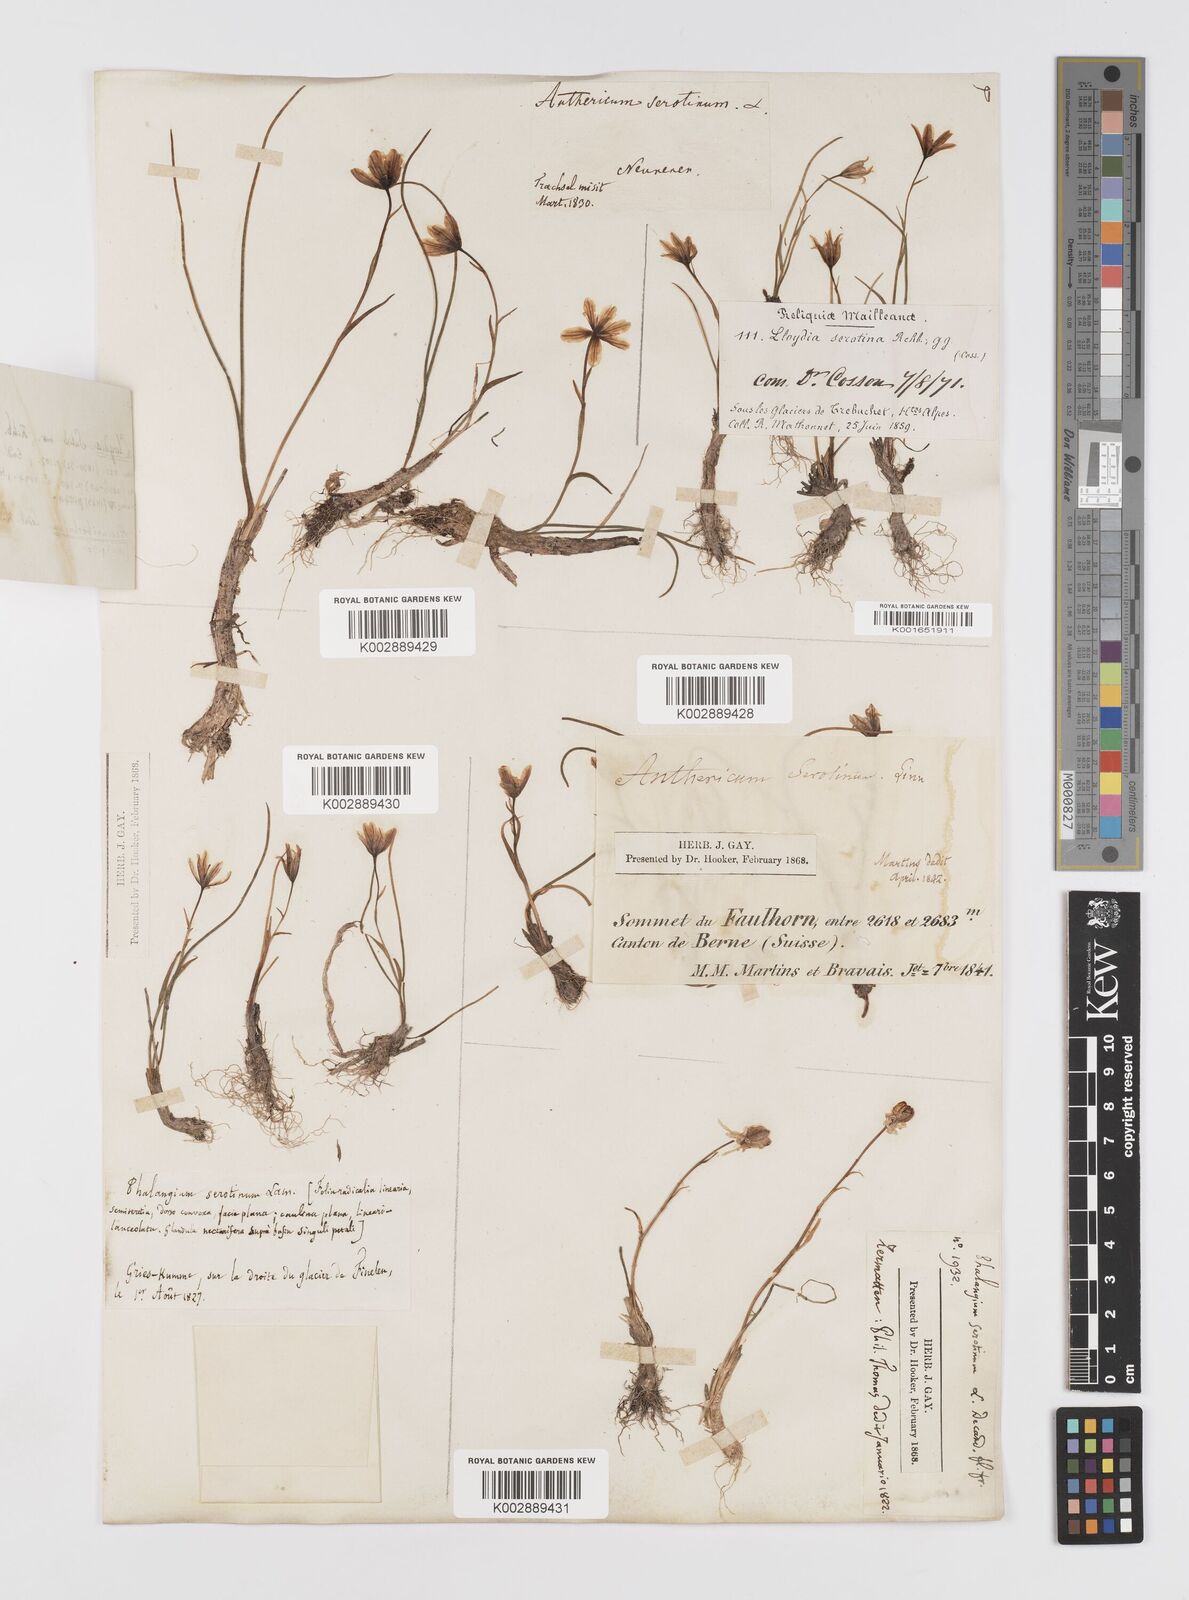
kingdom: Plantae
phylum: Tracheophyta
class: Liliopsida
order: Liliales
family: Liliaceae
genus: Gagea
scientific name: Gagea
